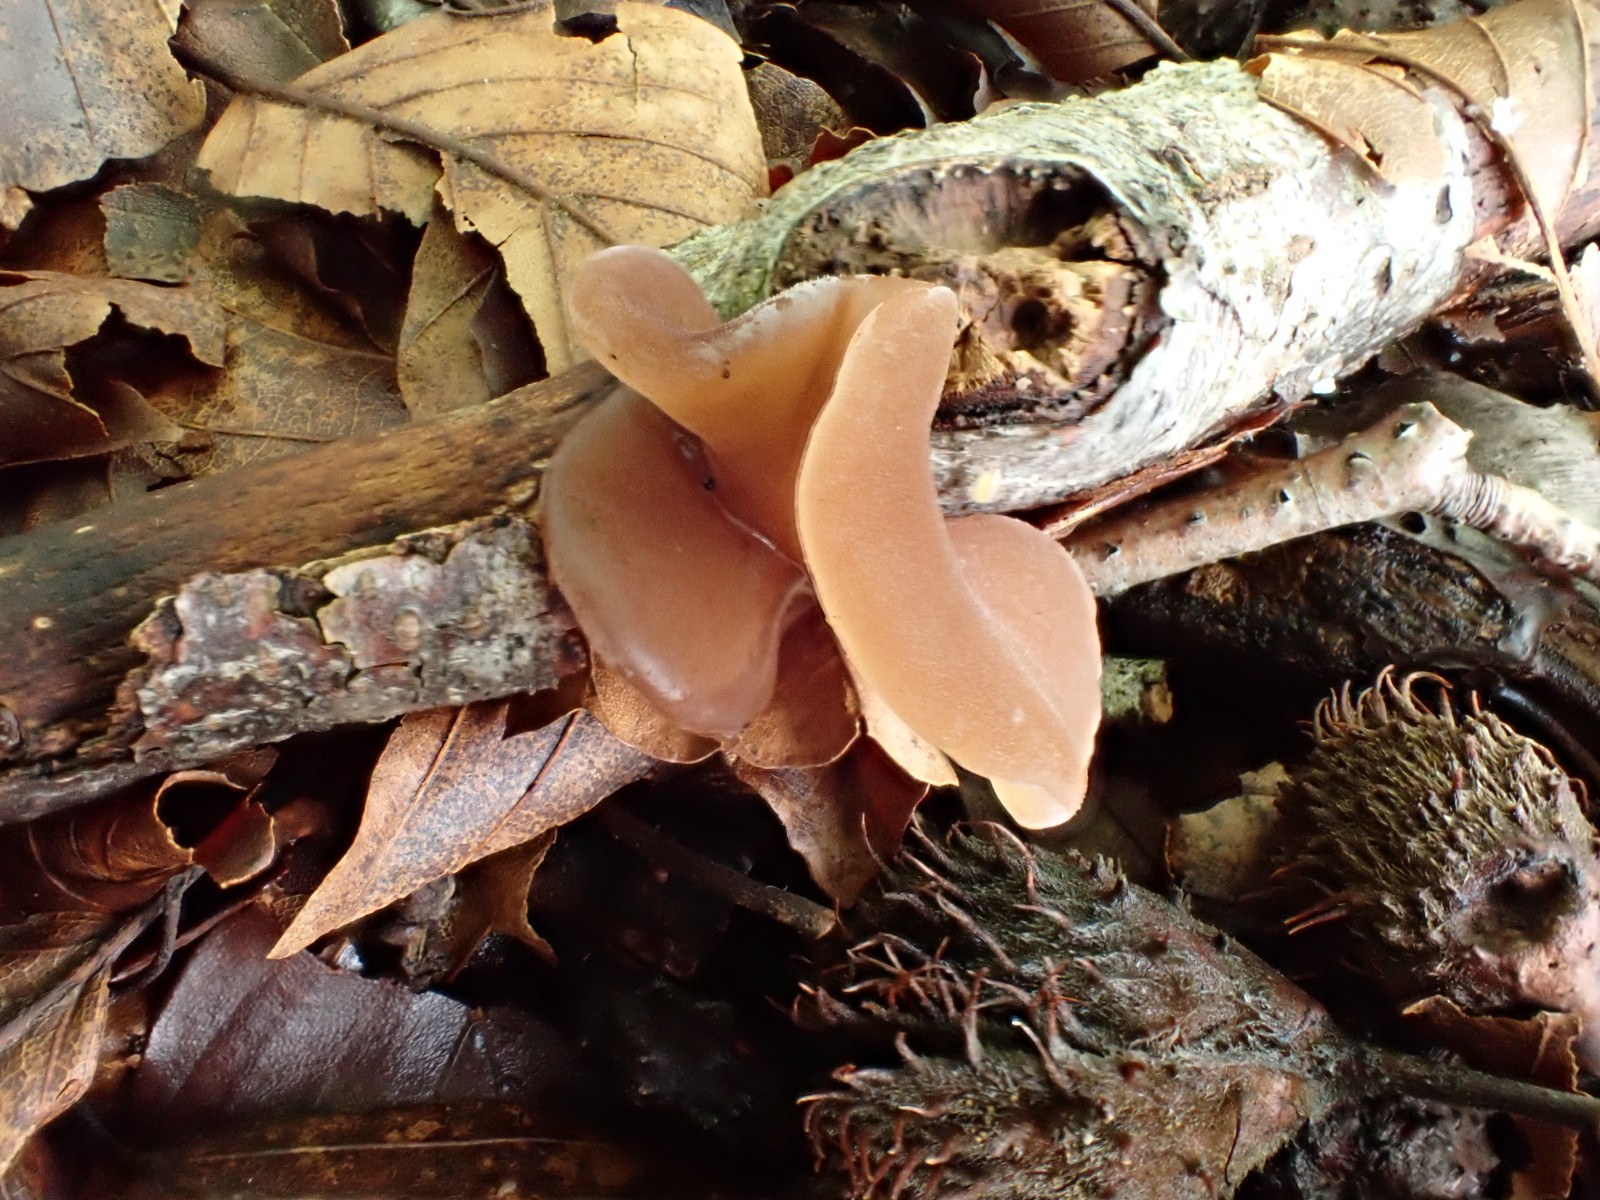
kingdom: Fungi
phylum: Basidiomycota
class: Agaricomycetes
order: Auriculariales
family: Auriculariaceae
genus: Auricularia
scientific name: Auricularia auricula-judae
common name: almindelig judasøre
